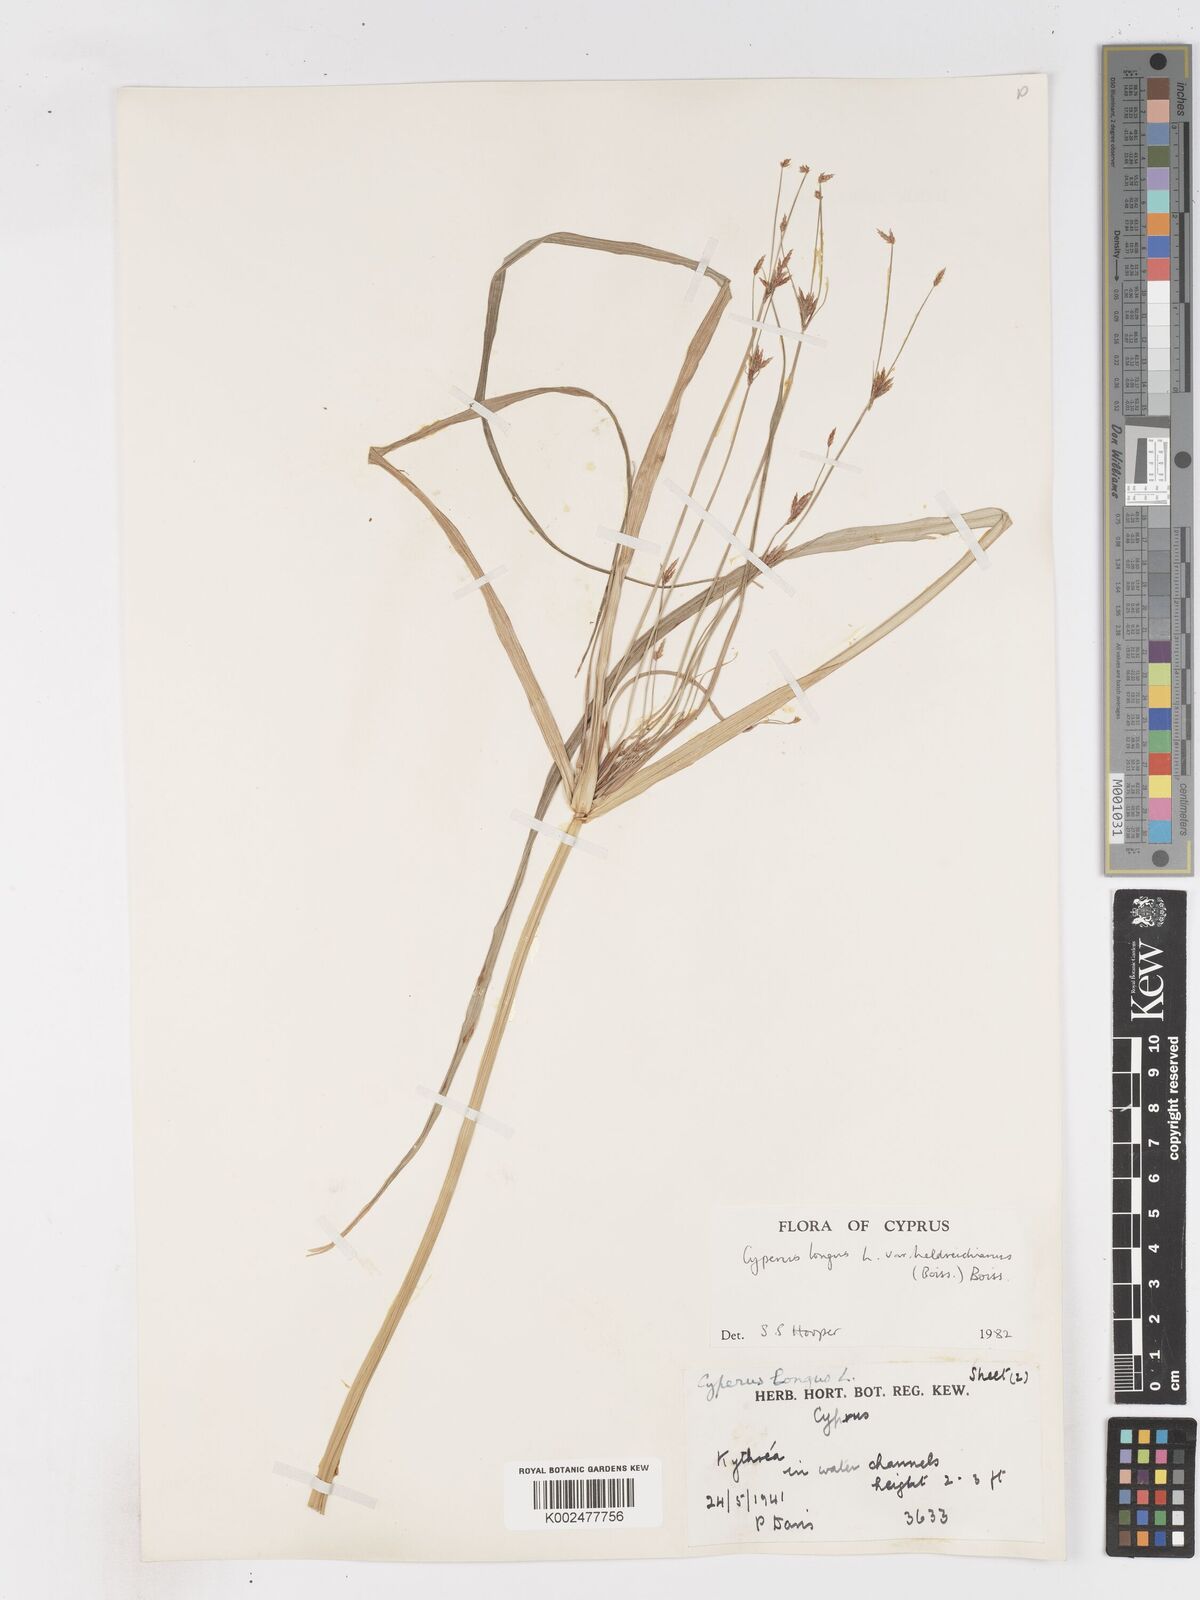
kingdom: Plantae
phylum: Tracheophyta
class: Liliopsida
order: Poales
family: Cyperaceae
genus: Cyperus
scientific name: Cyperus longus
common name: Galingale
